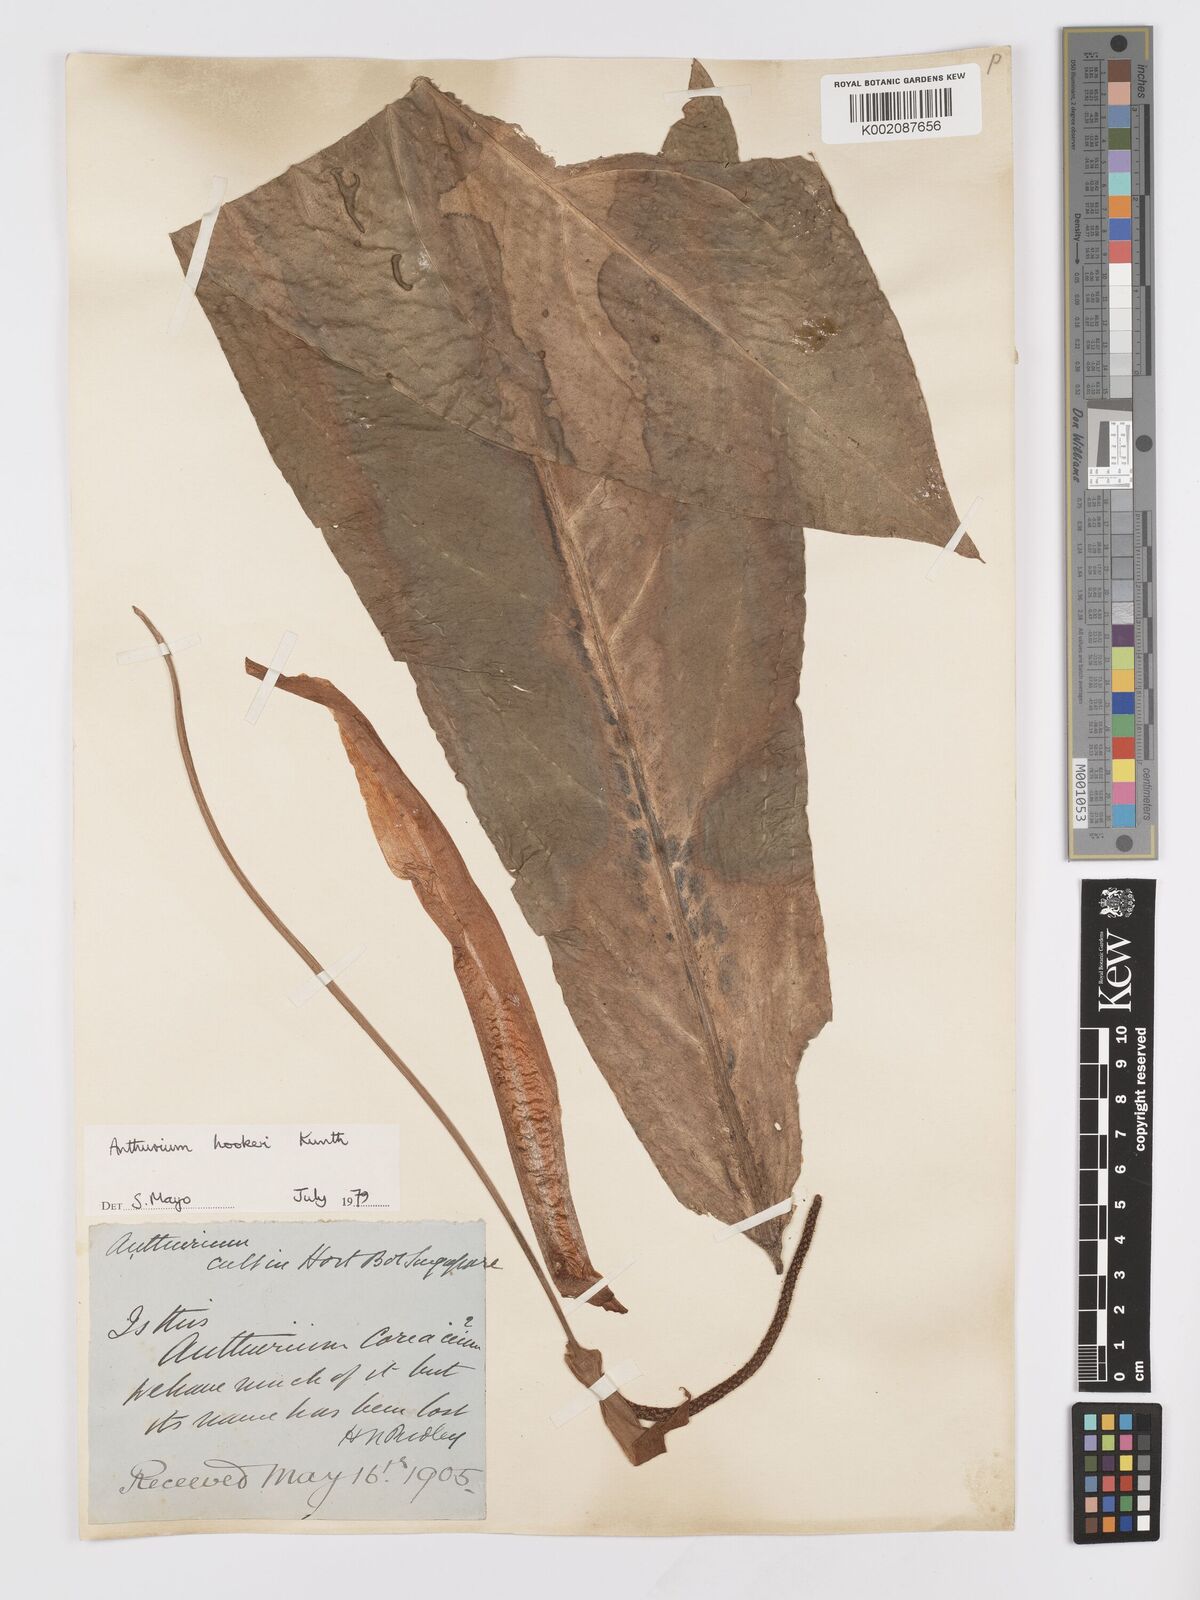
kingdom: Plantae
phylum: Tracheophyta
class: Liliopsida
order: Alismatales
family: Araceae
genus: Anthurium
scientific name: Anthurium hookeri
